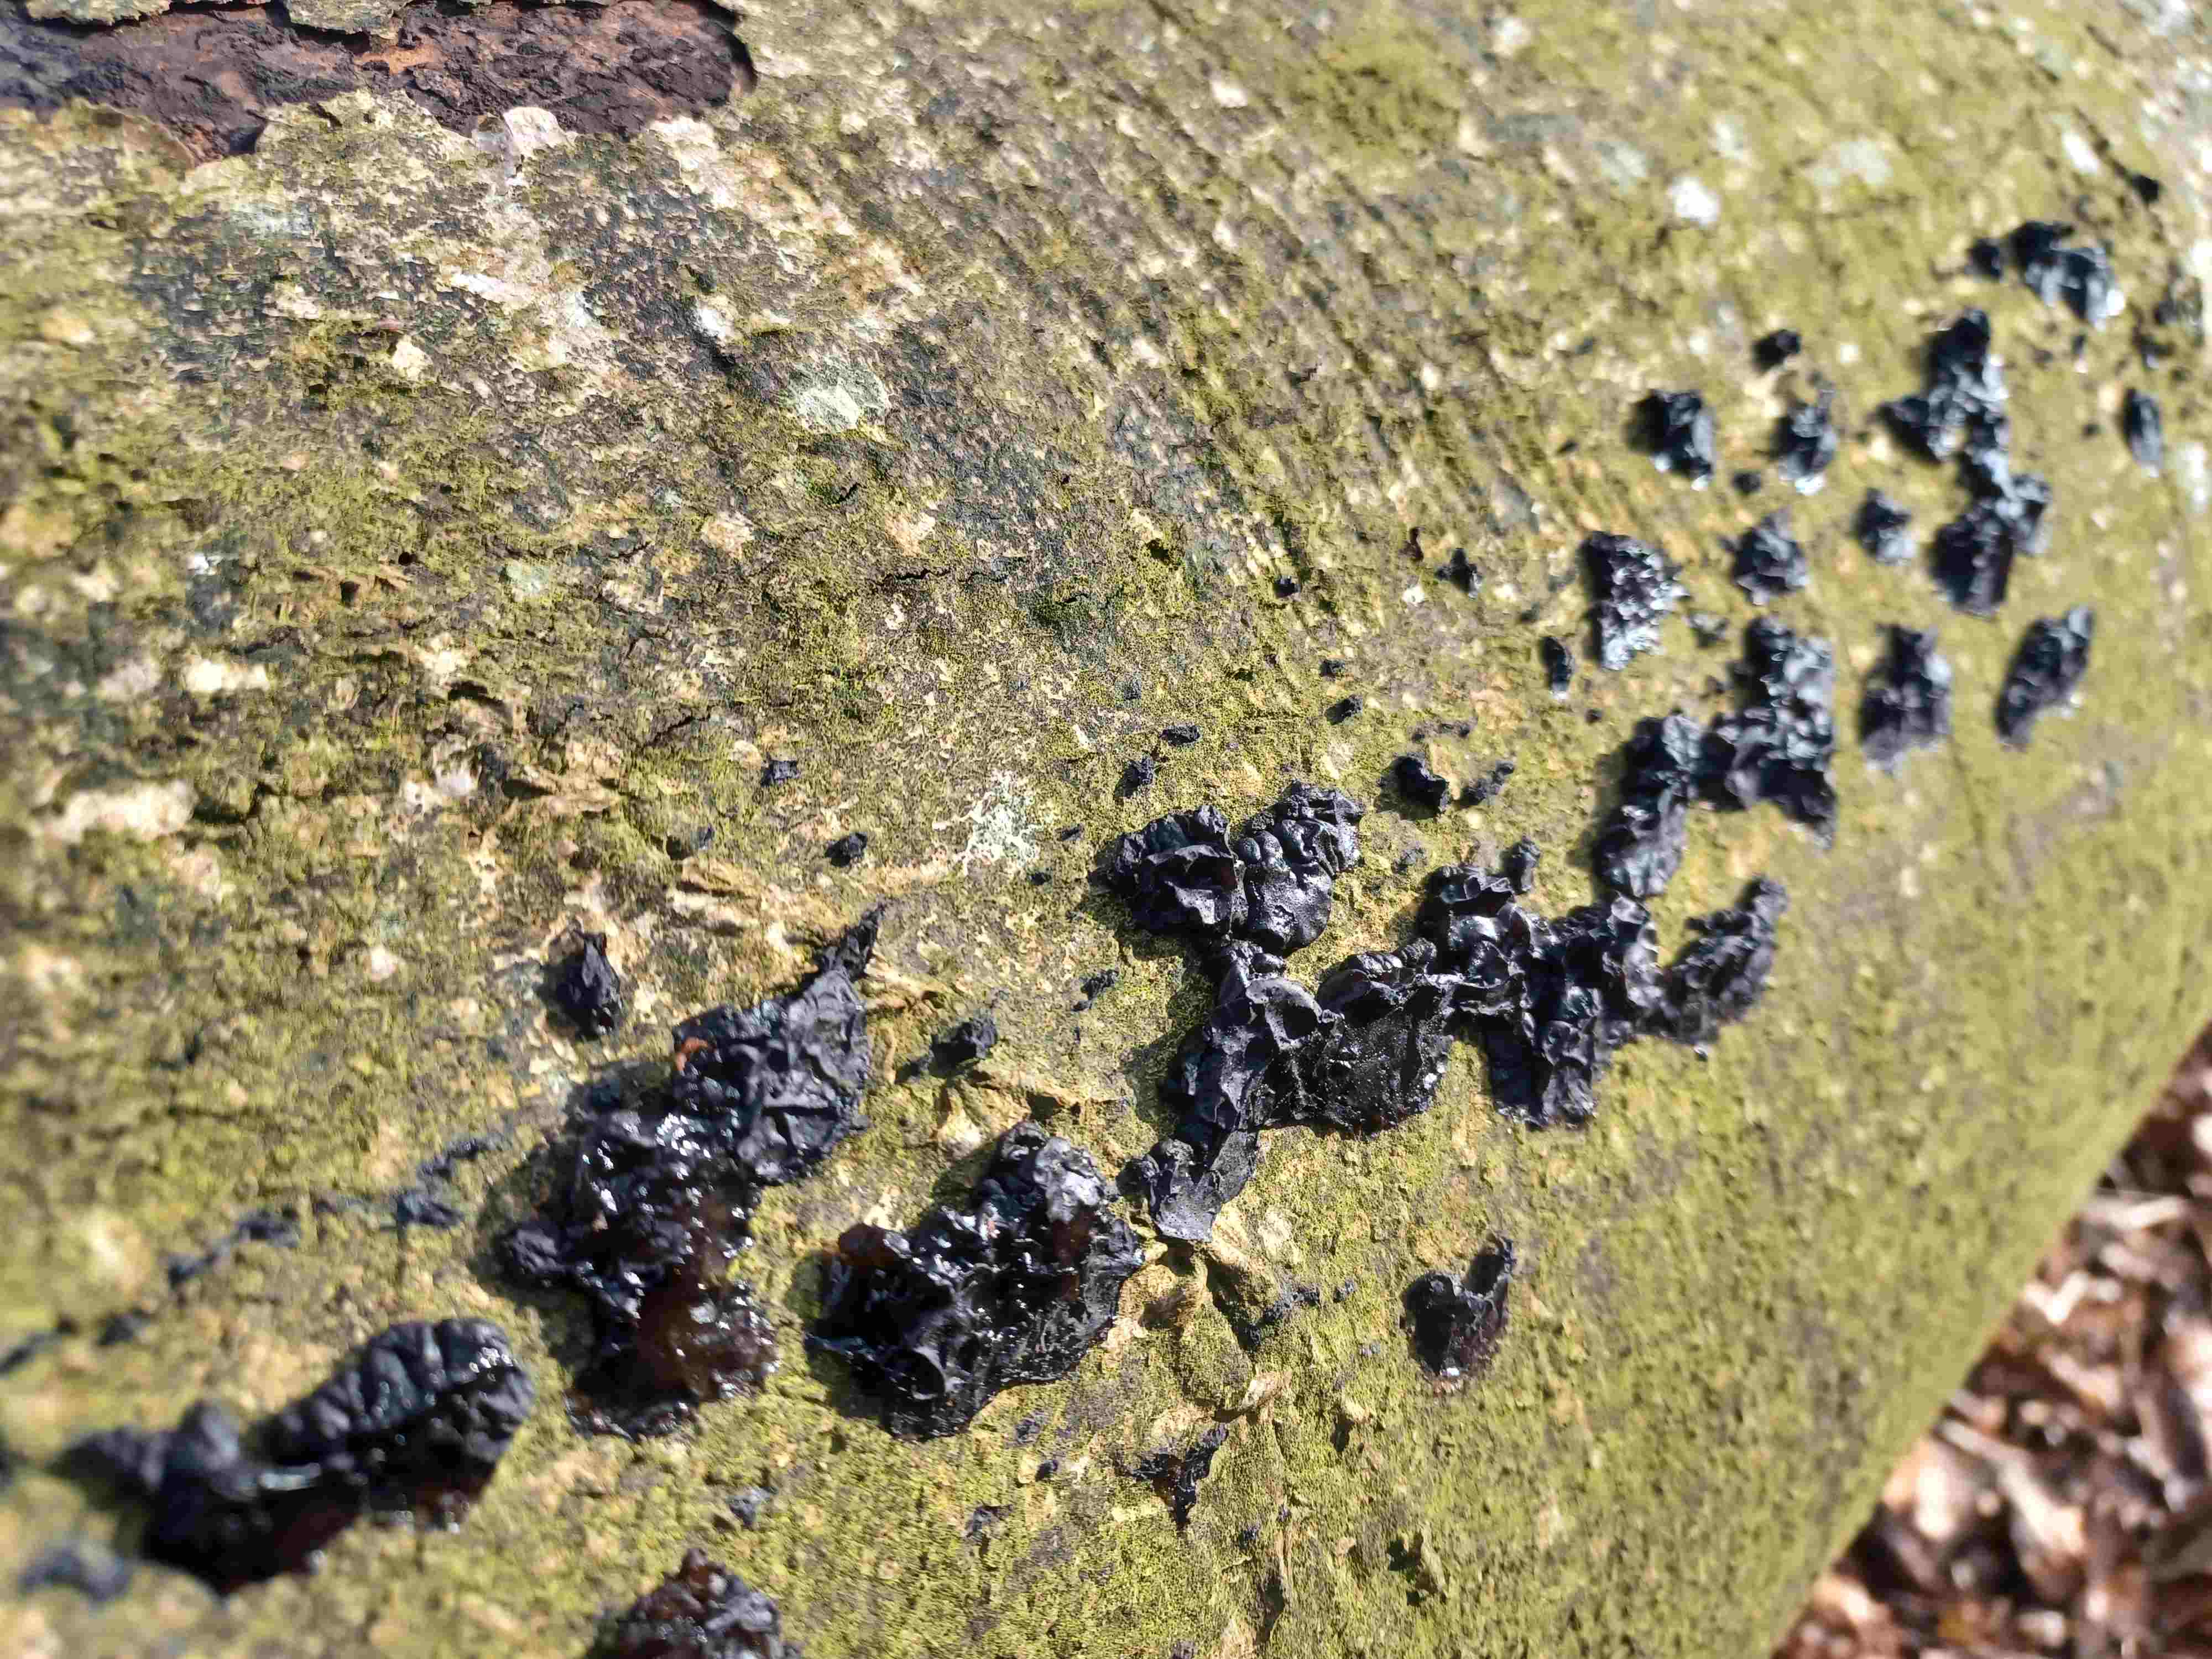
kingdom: Fungi
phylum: Basidiomycota
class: Agaricomycetes
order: Auriculariales
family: Auriculariaceae
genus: Exidia
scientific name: Exidia nigricans
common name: almindelig bævretop
